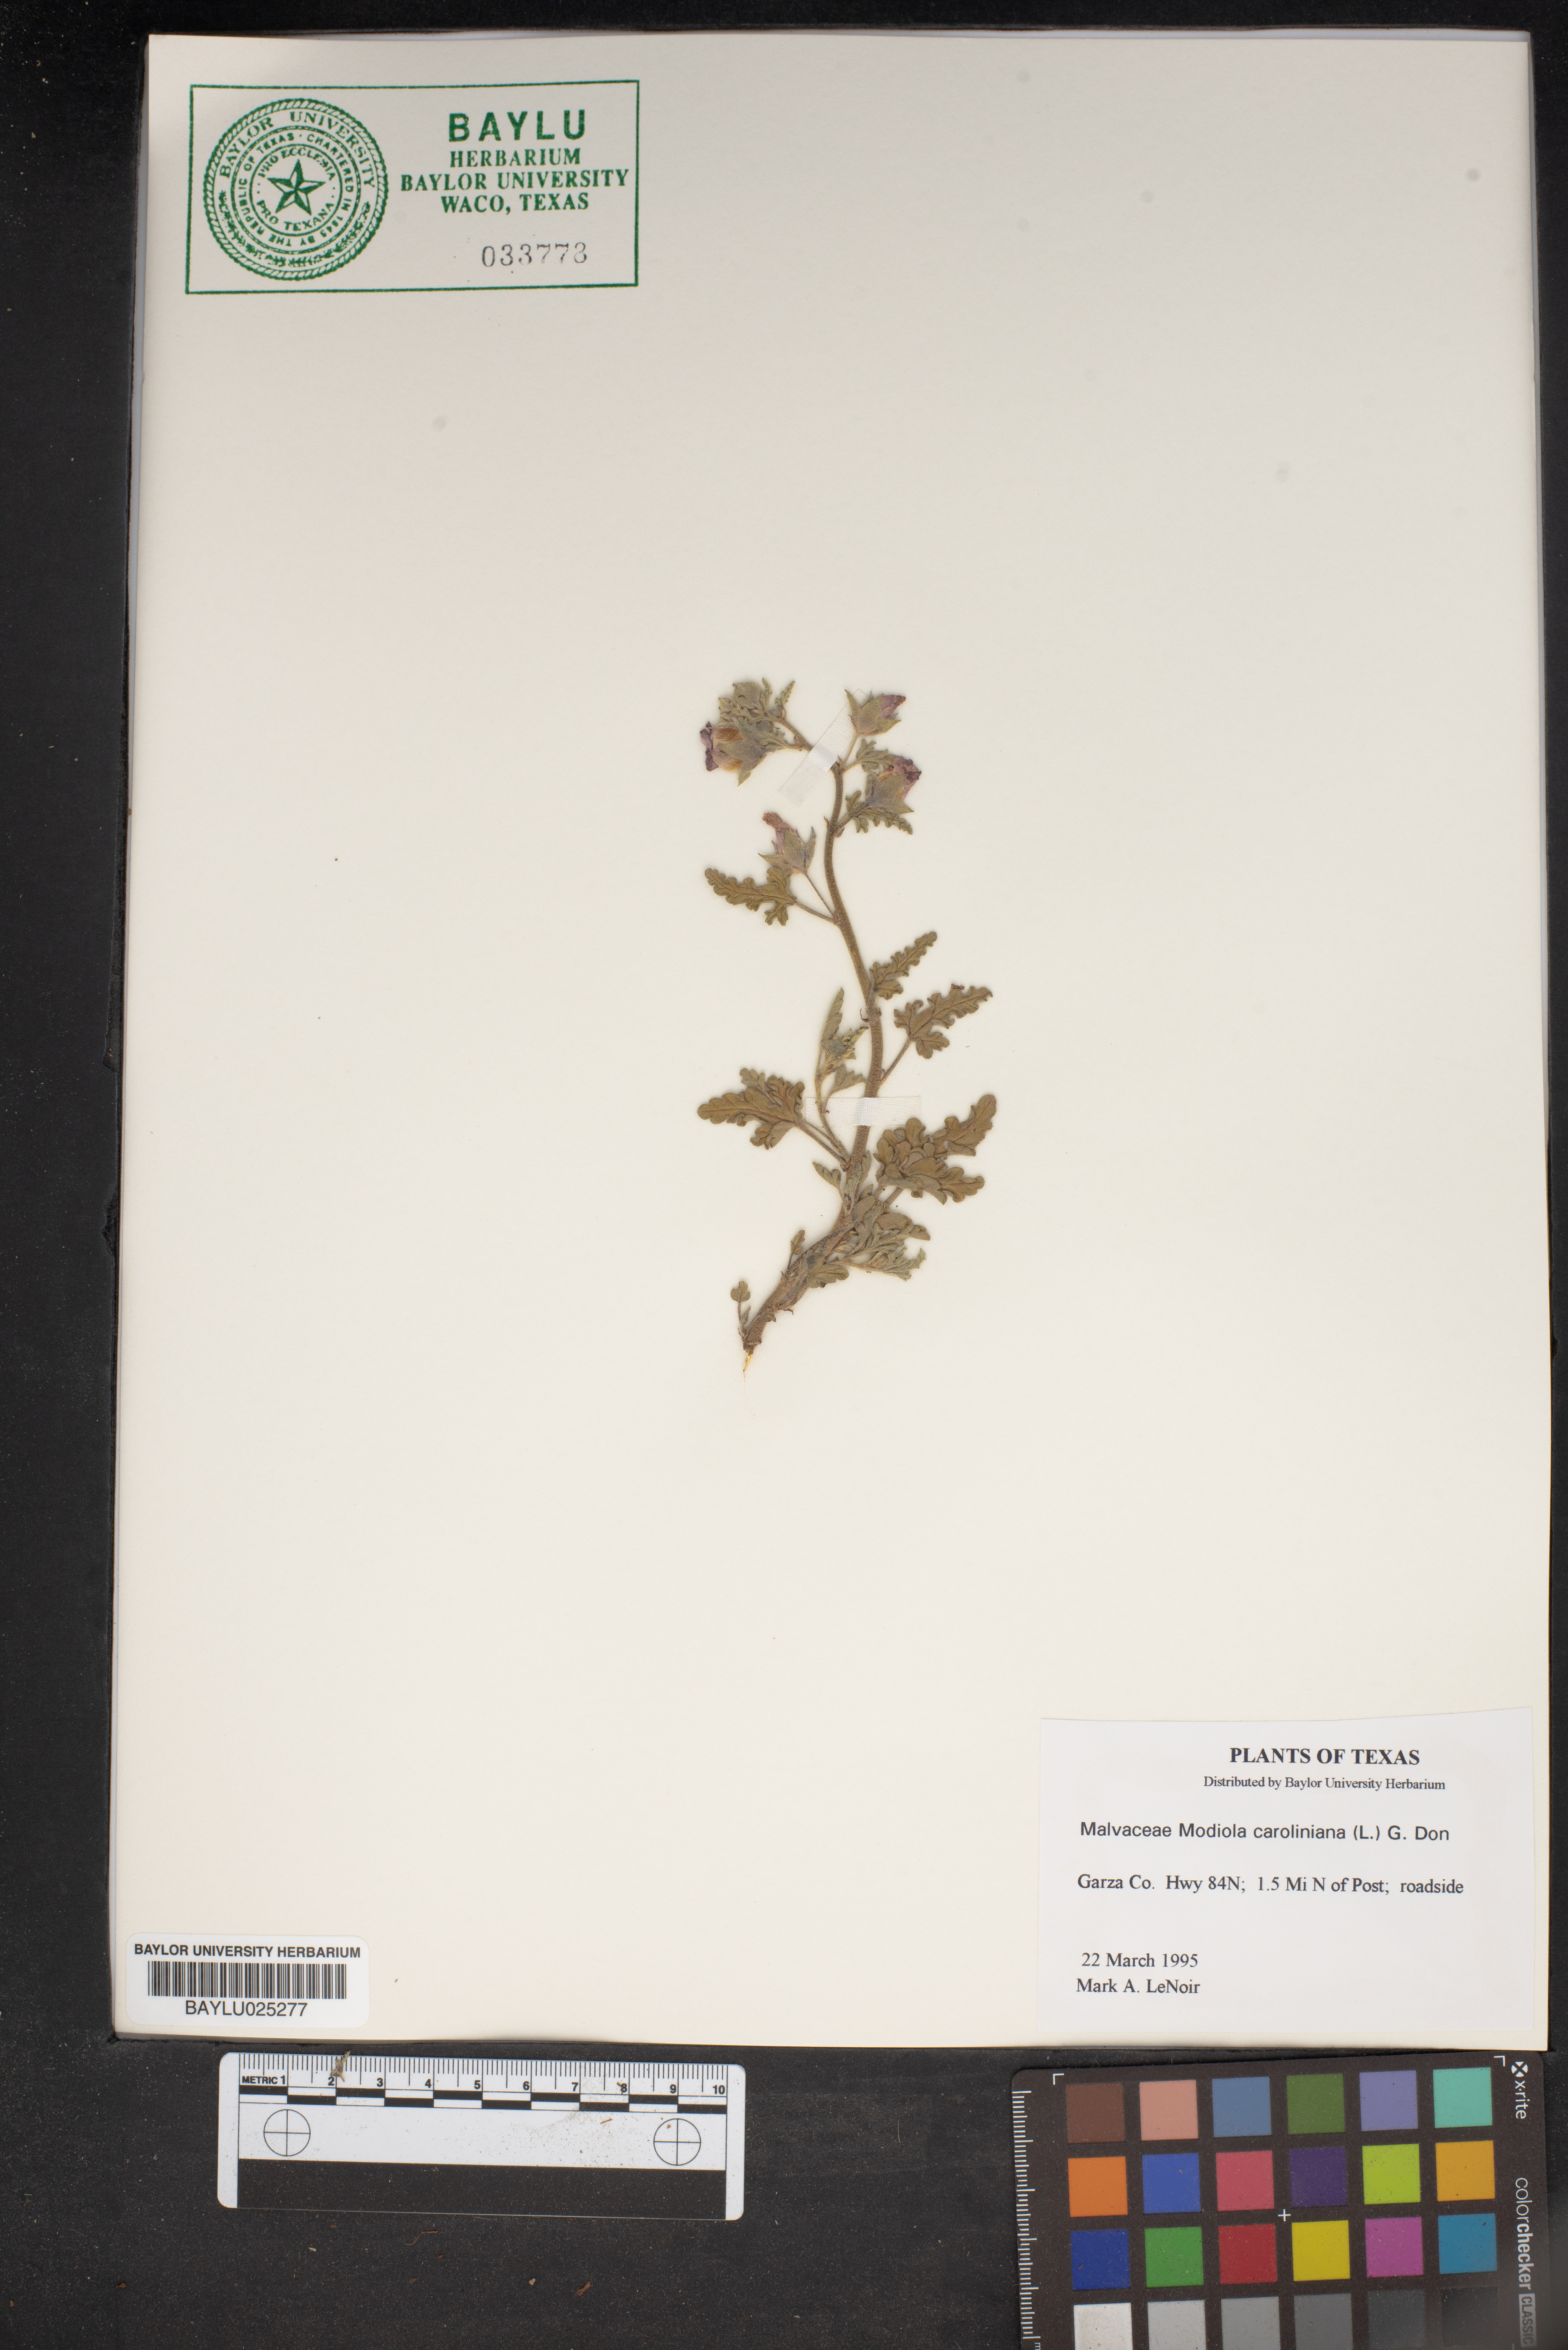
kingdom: Plantae
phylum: Tracheophyta
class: Magnoliopsida
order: Malvales
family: Malvaceae
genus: Modiola
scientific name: Modiola caroliniana
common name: Carolina bristlemallow
